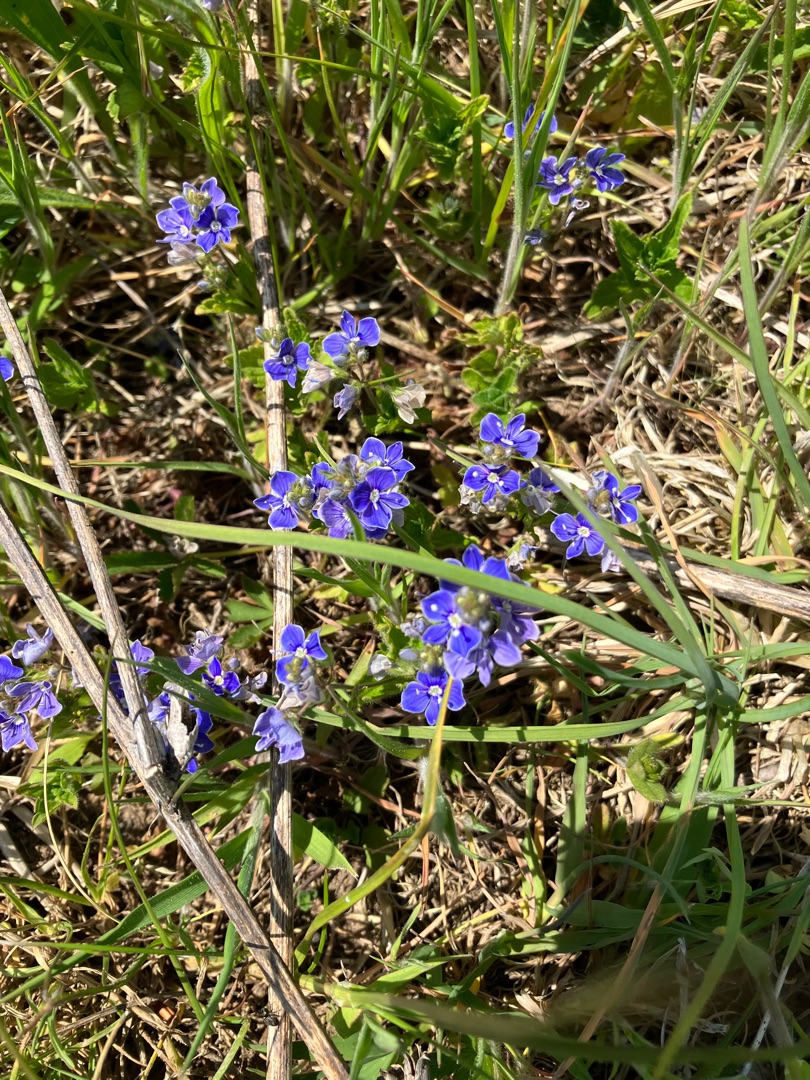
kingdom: Plantae
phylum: Tracheophyta
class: Magnoliopsida
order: Lamiales
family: Plantaginaceae
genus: Veronica
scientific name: Veronica chamaedrys
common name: Tveskægget ærenpris
